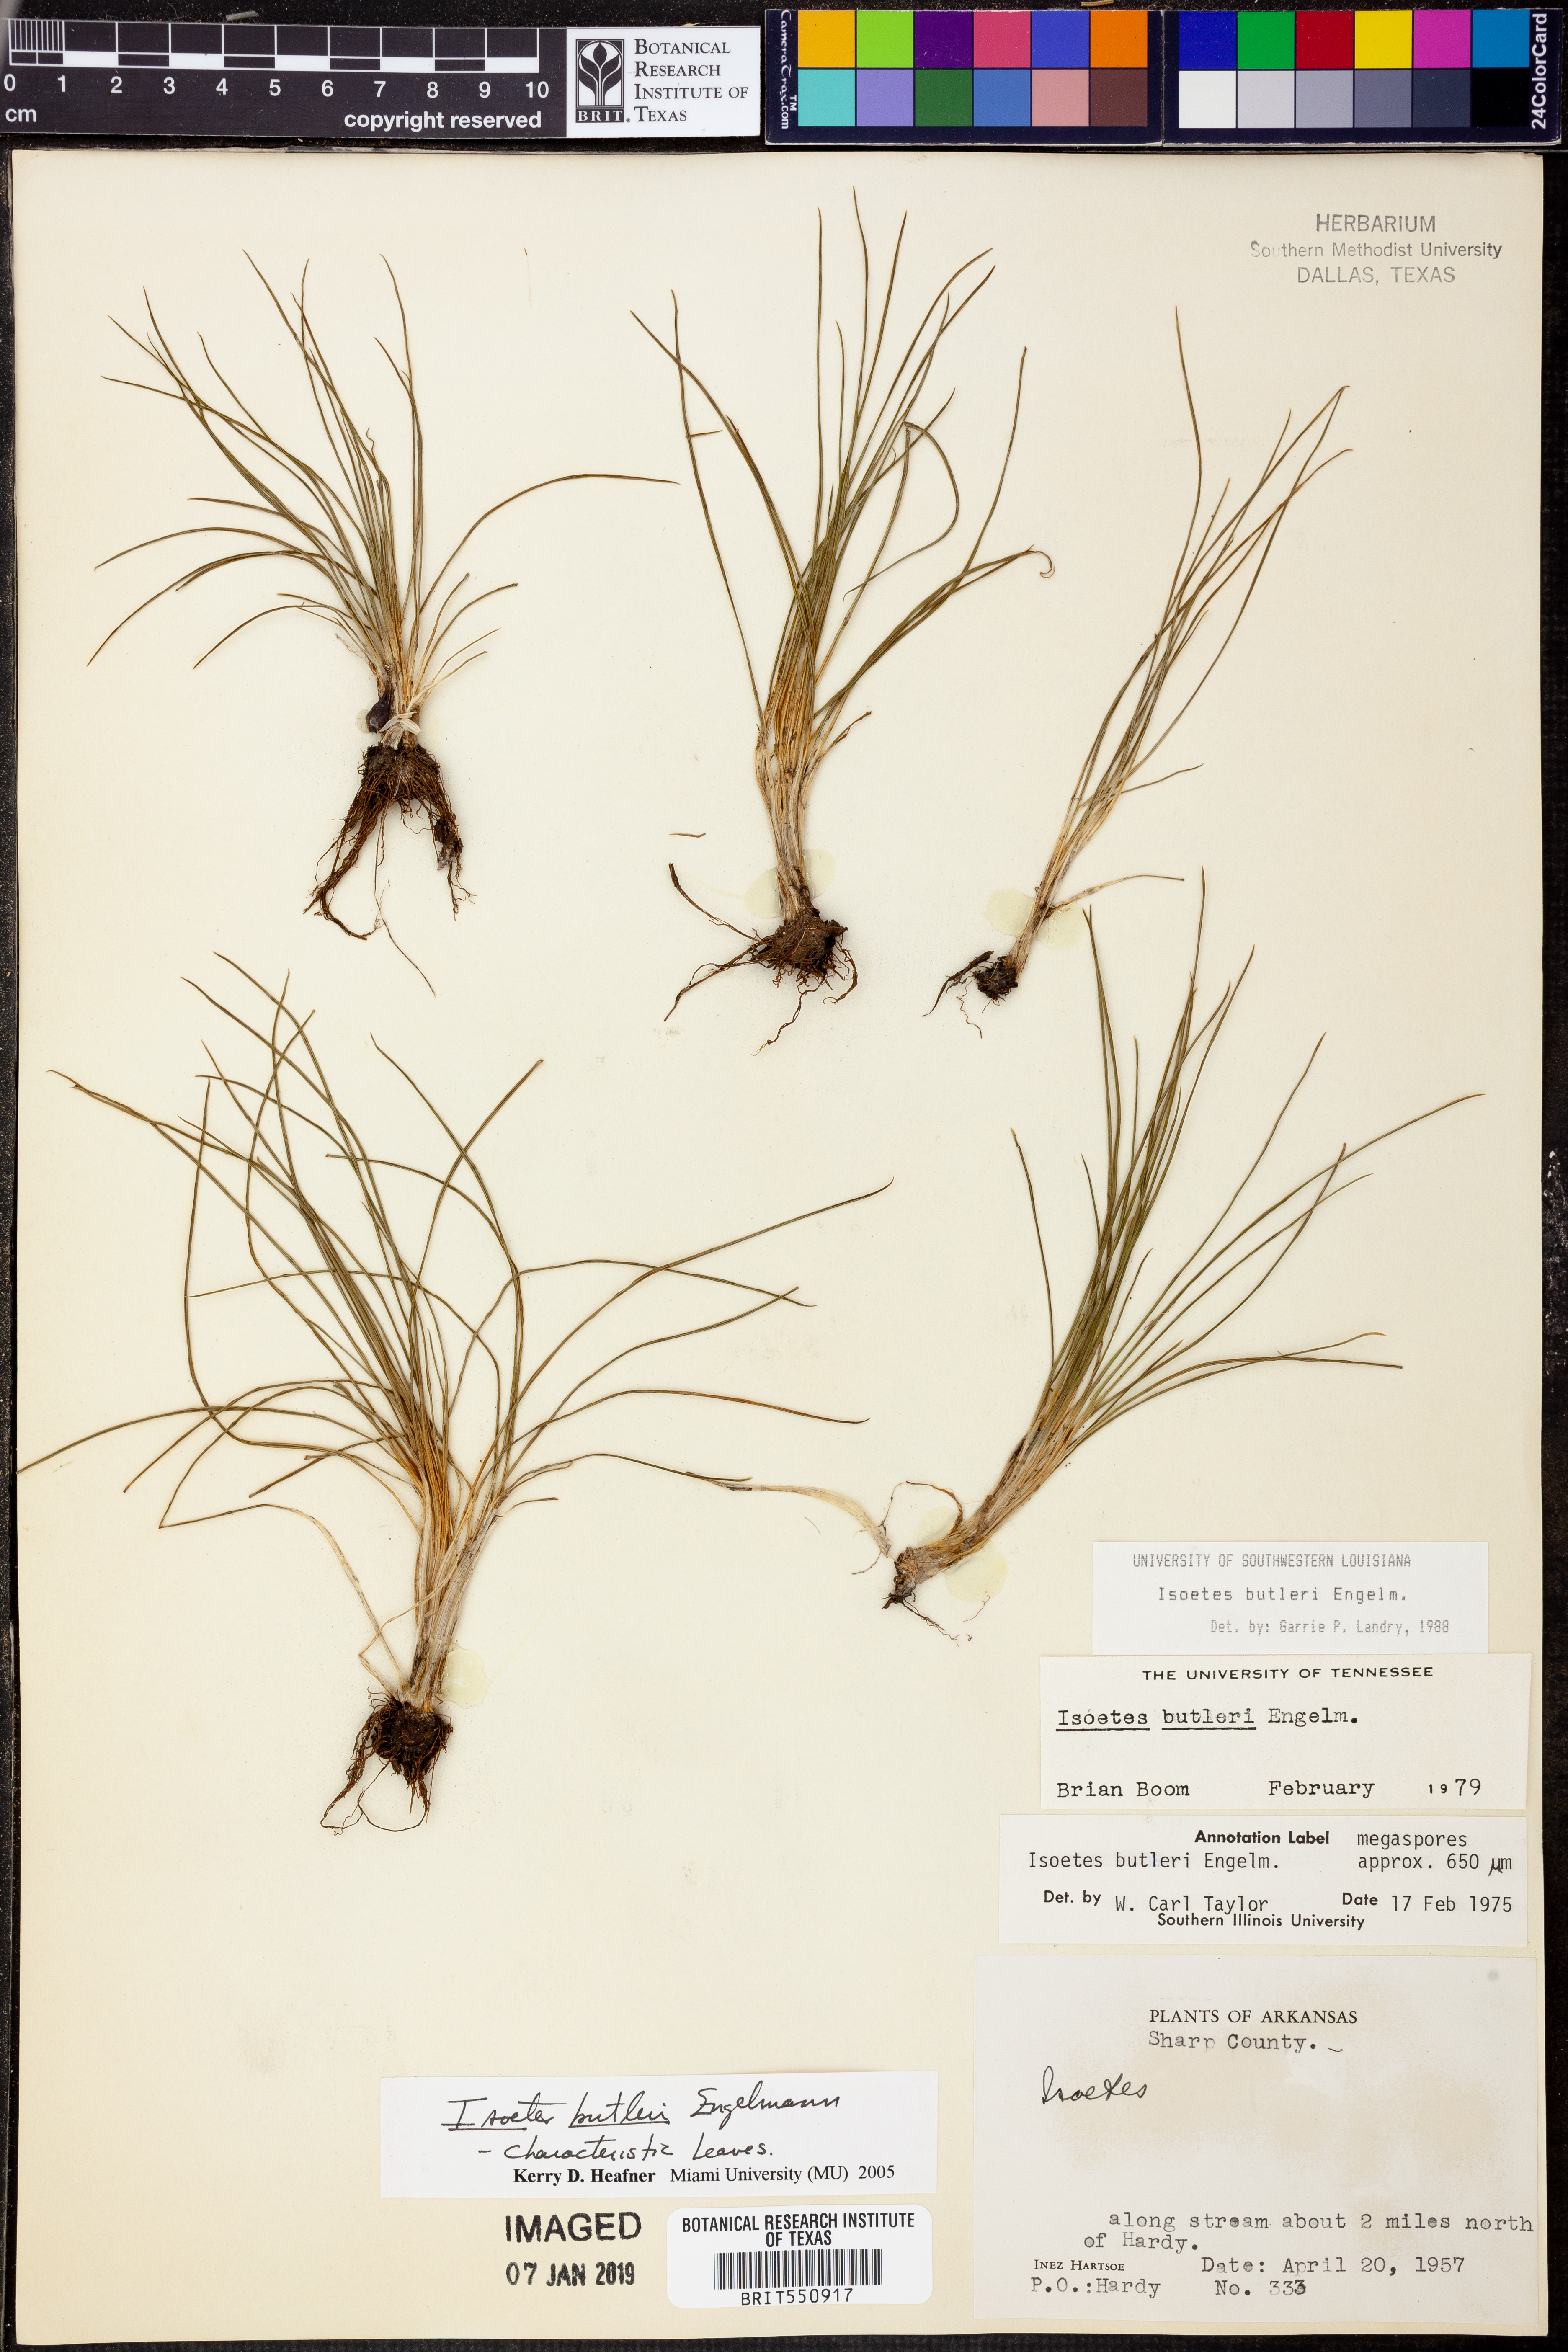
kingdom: Plantae
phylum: Tracheophyta
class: Lycopodiopsida
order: Isoetales
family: Isoetaceae
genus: Isoetes
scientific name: Isoetes butleri
